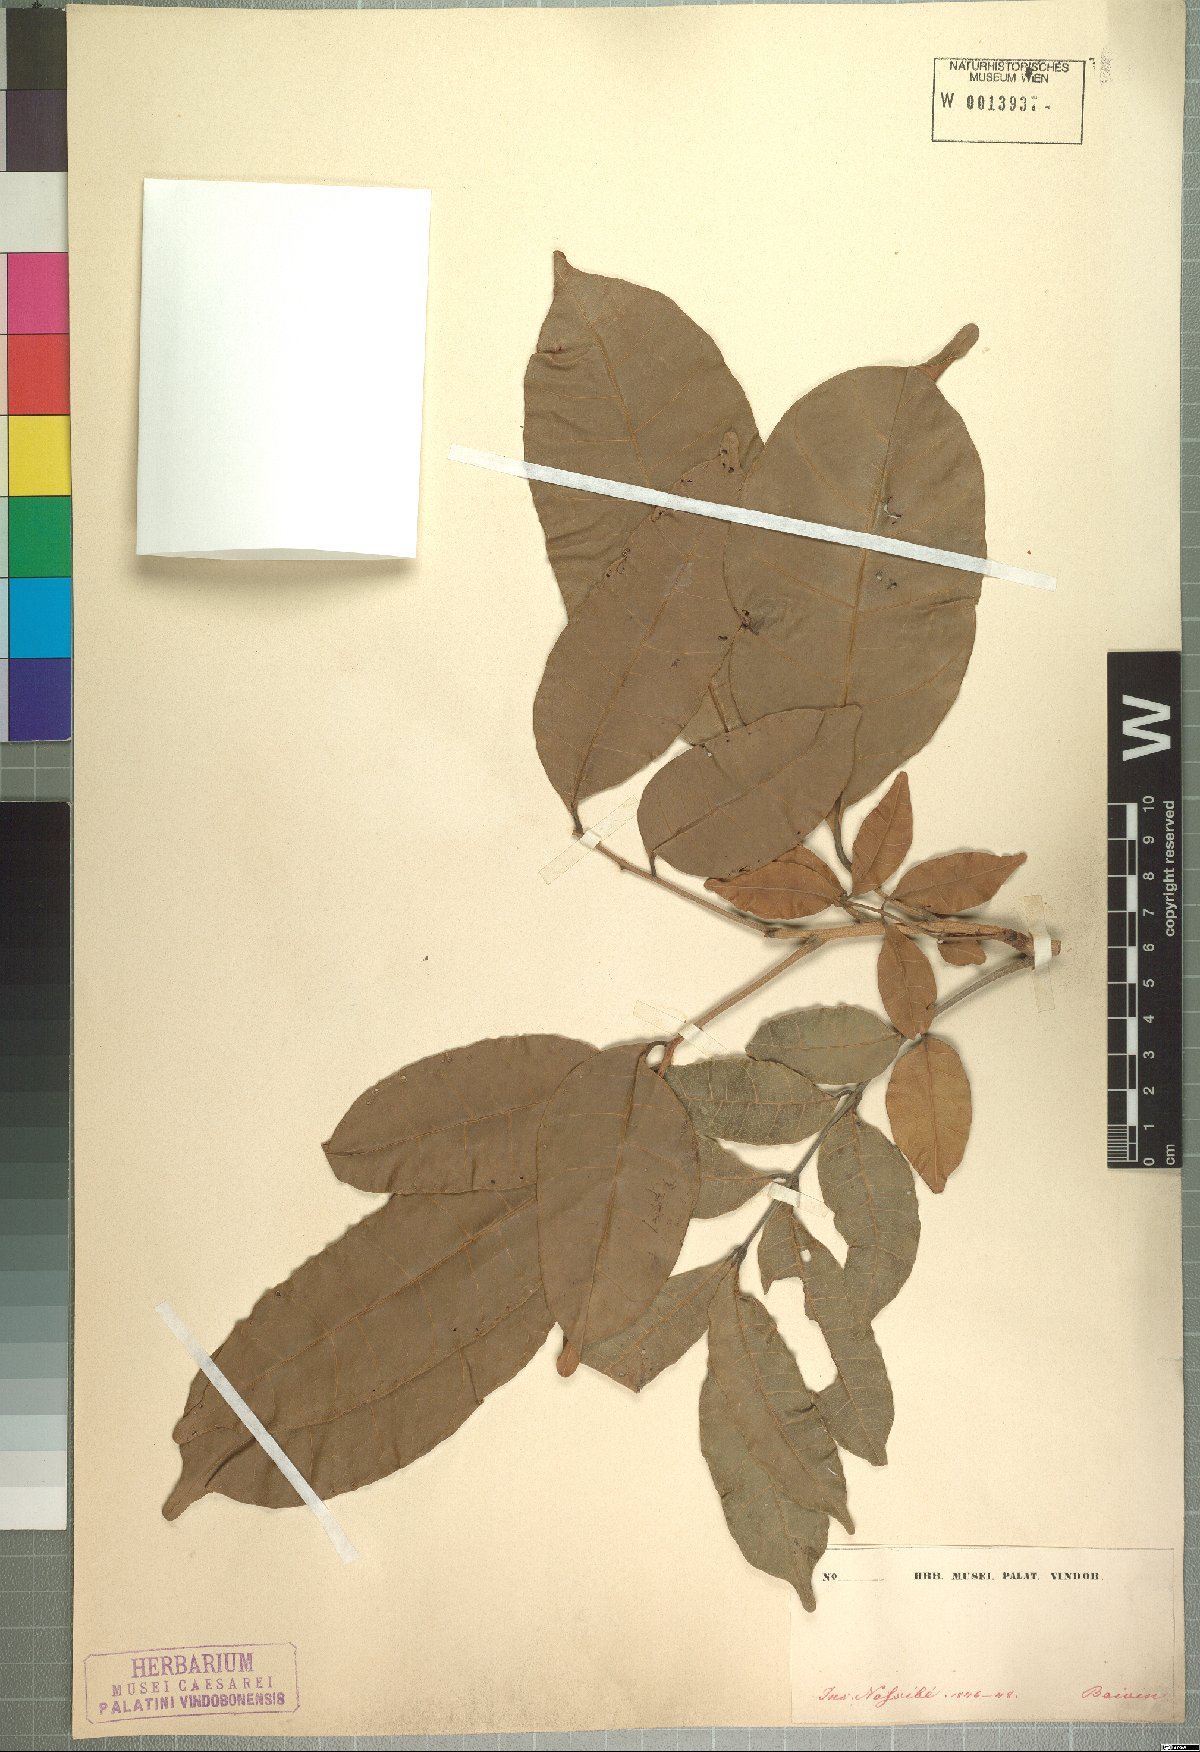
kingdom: Plantae
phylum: Tracheophyta
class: Magnoliopsida
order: Lamiales
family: Bignoniaceae
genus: Rhodocolea
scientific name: Rhodocolea boivinii
